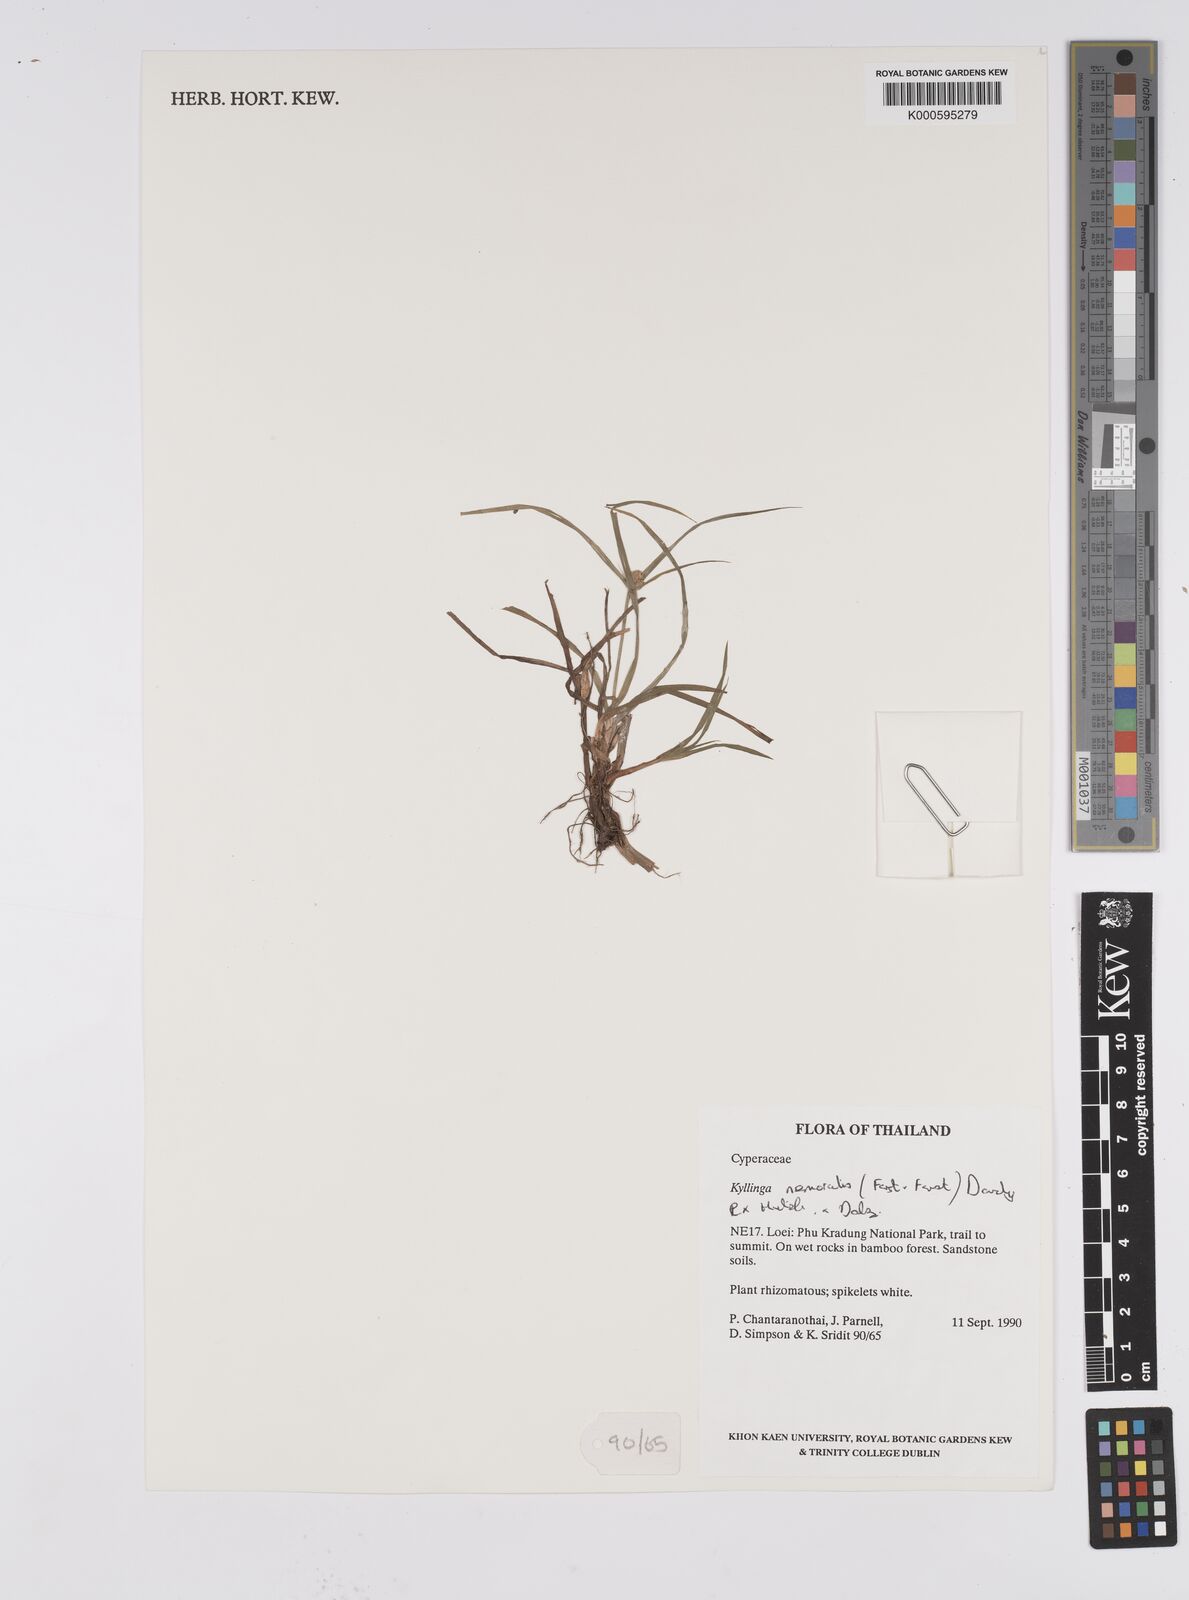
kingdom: Plantae
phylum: Tracheophyta
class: Liliopsida
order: Poales
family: Cyperaceae
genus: Cyperus
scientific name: Cyperus mindorensis
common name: Flatsedge
